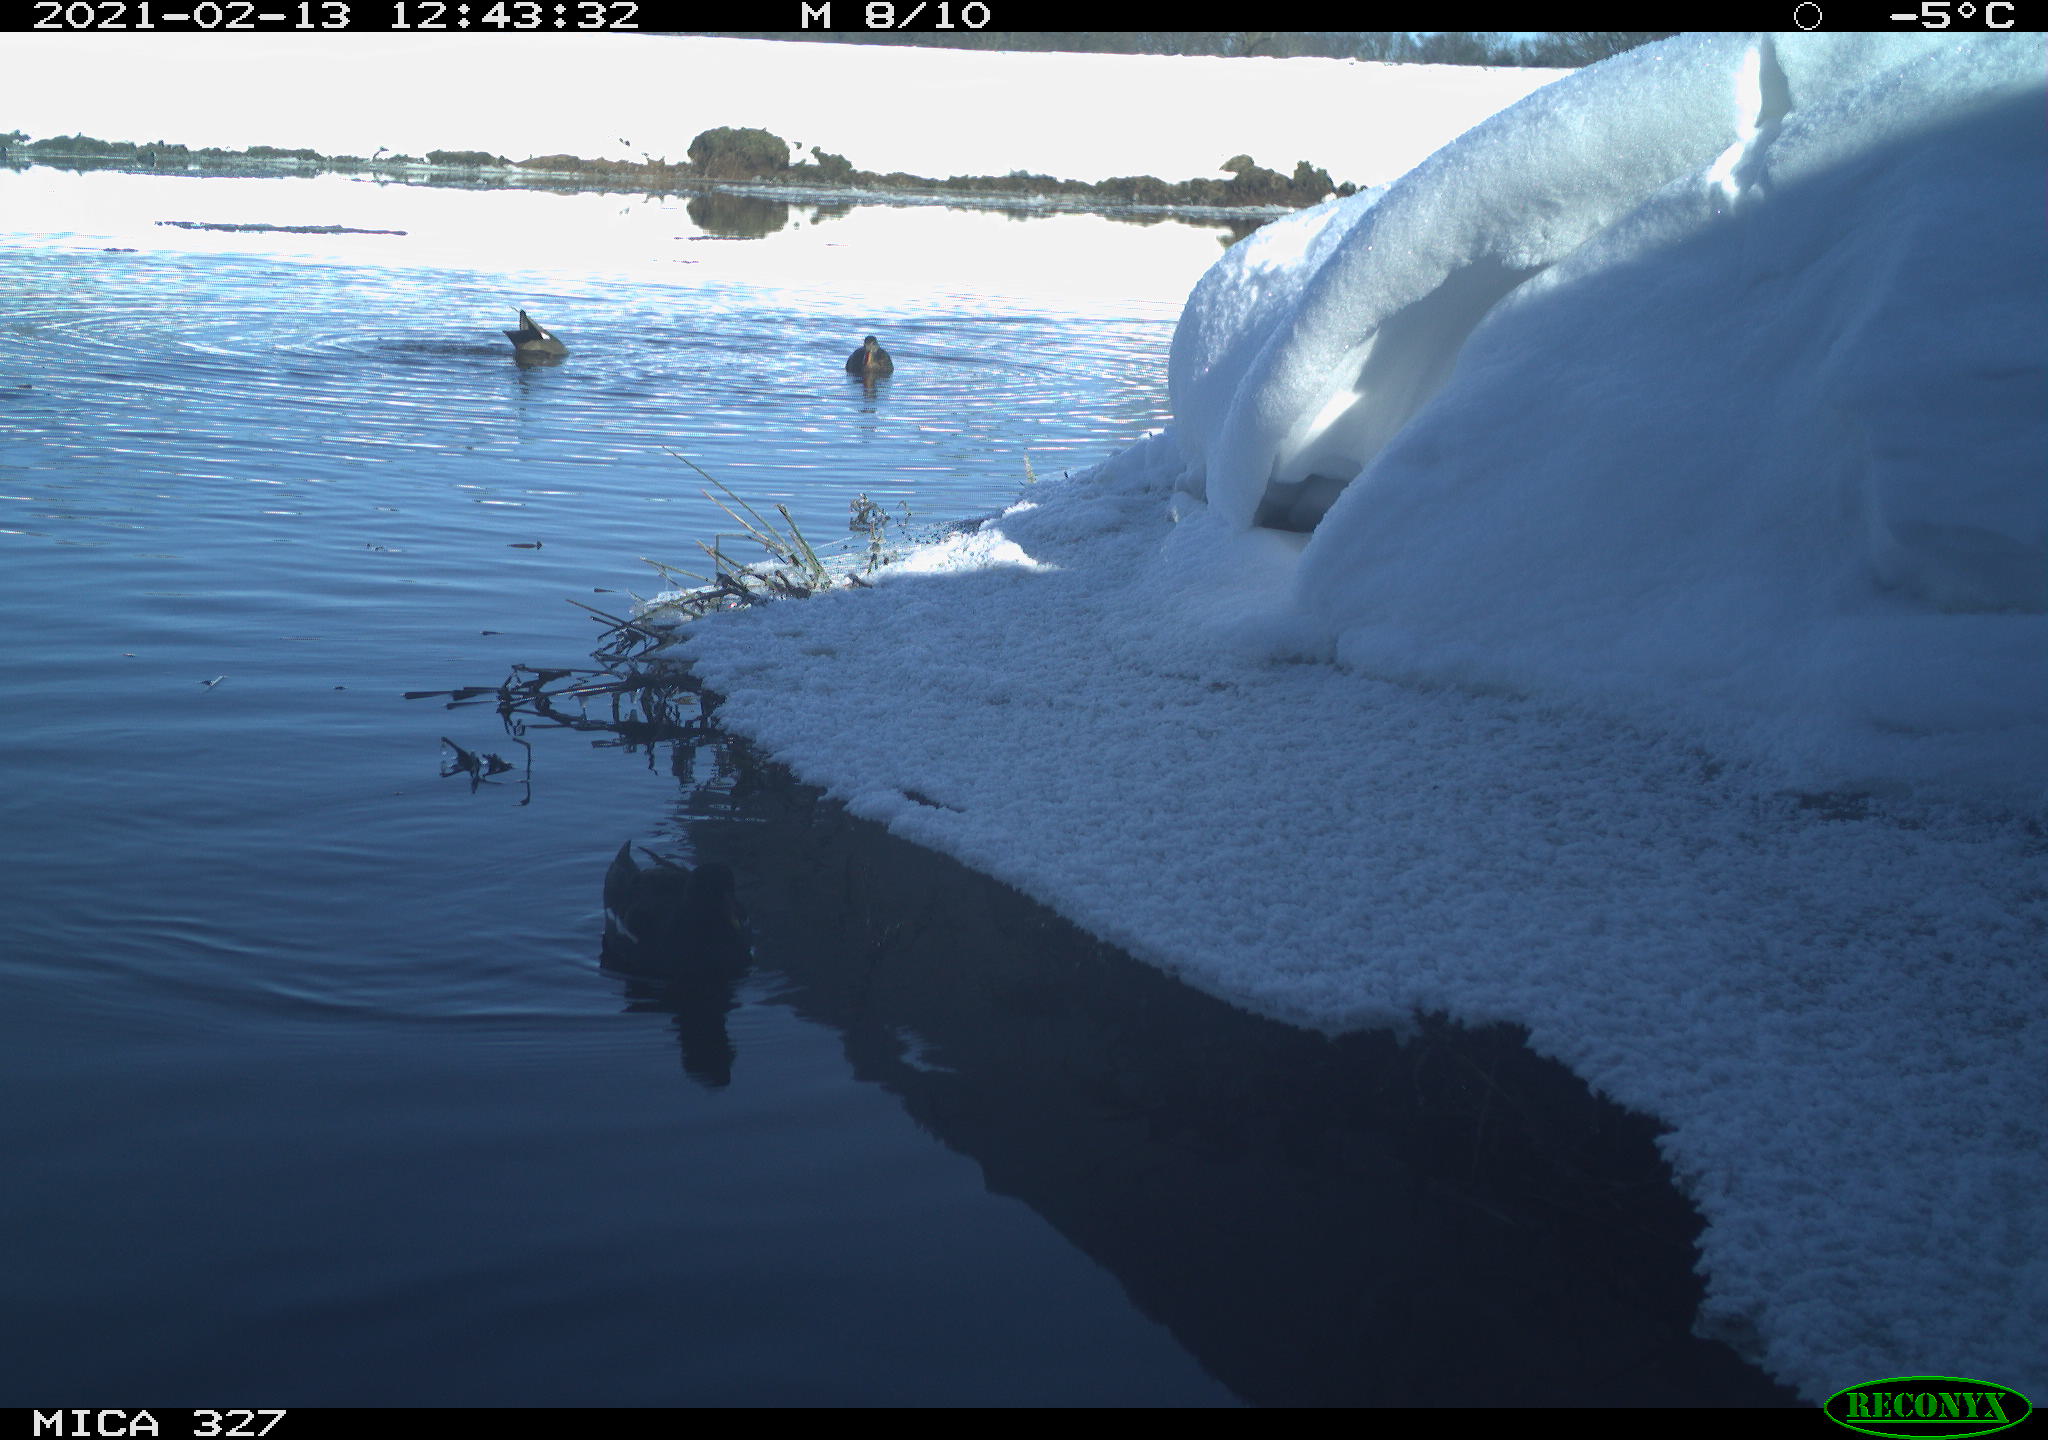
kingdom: Animalia
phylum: Chordata
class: Aves
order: Gruiformes
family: Rallidae
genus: Gallinula
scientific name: Gallinula chloropus
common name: Common moorhen
